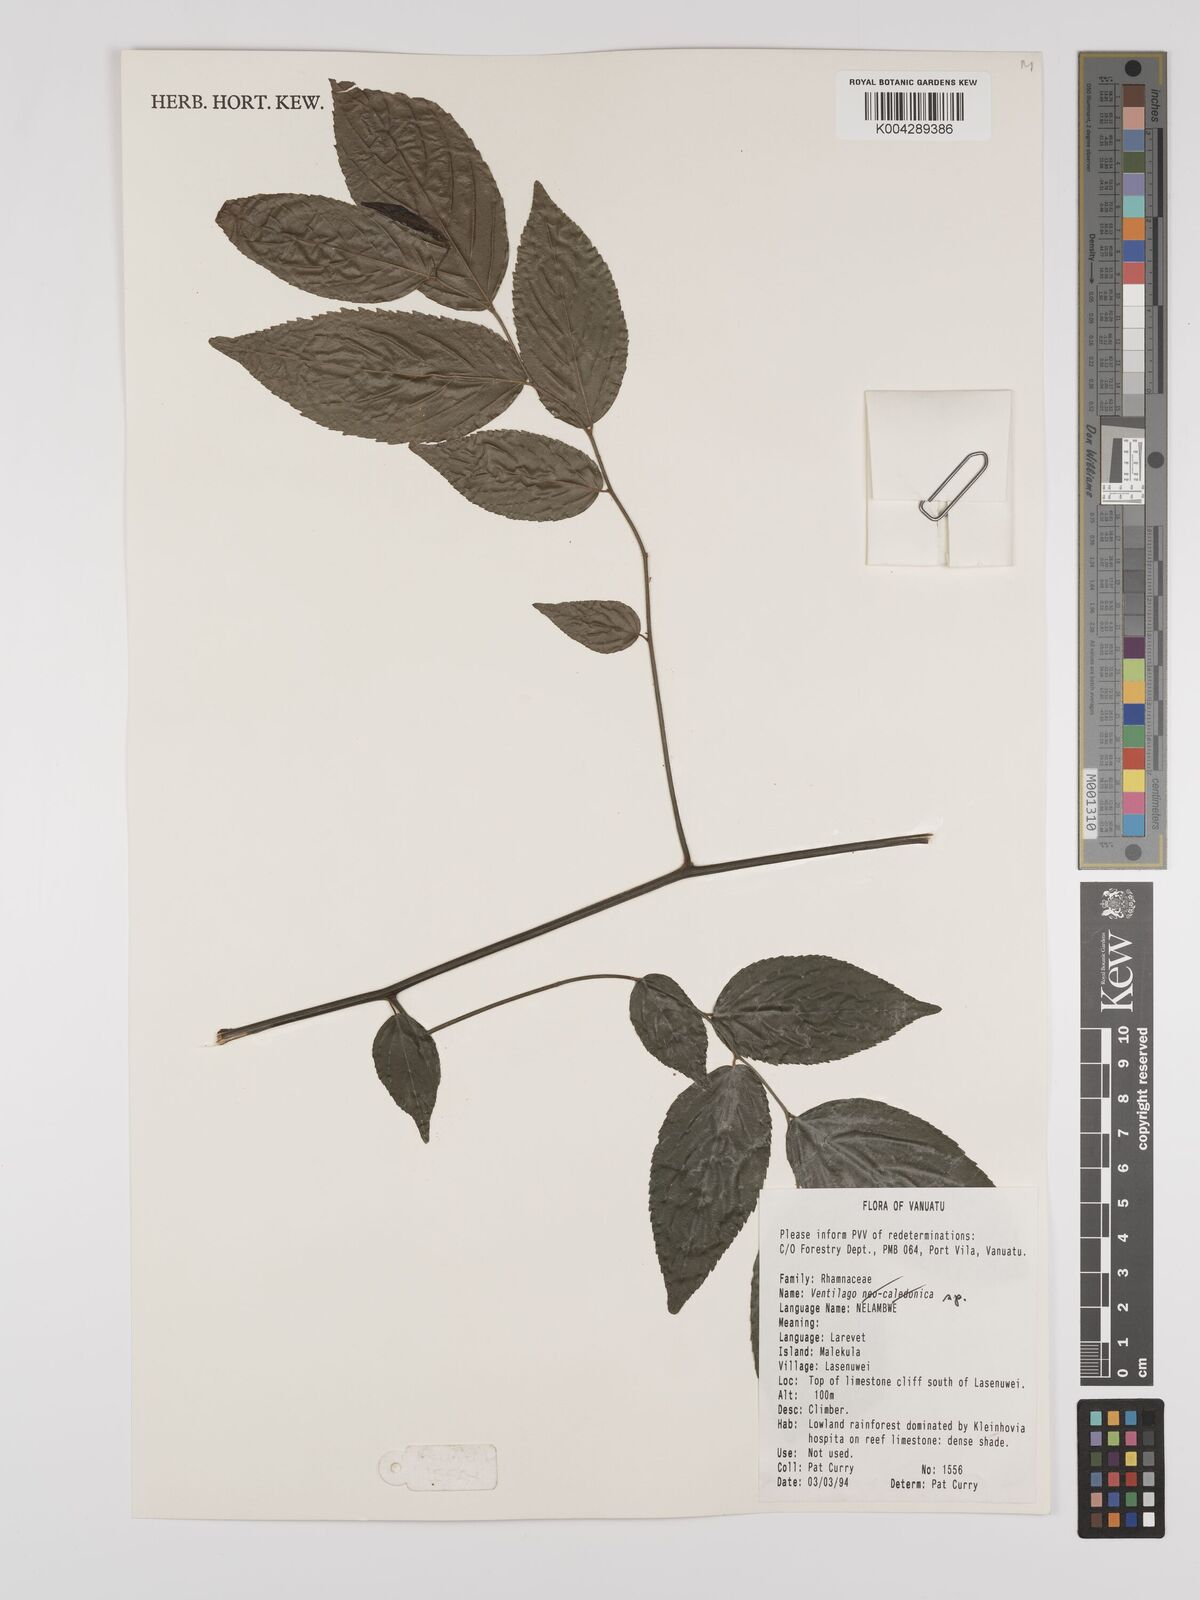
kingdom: Plantae
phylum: Tracheophyta
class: Magnoliopsida
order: Rosales
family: Rhamnaceae
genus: Ventilago
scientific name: Ventilago
